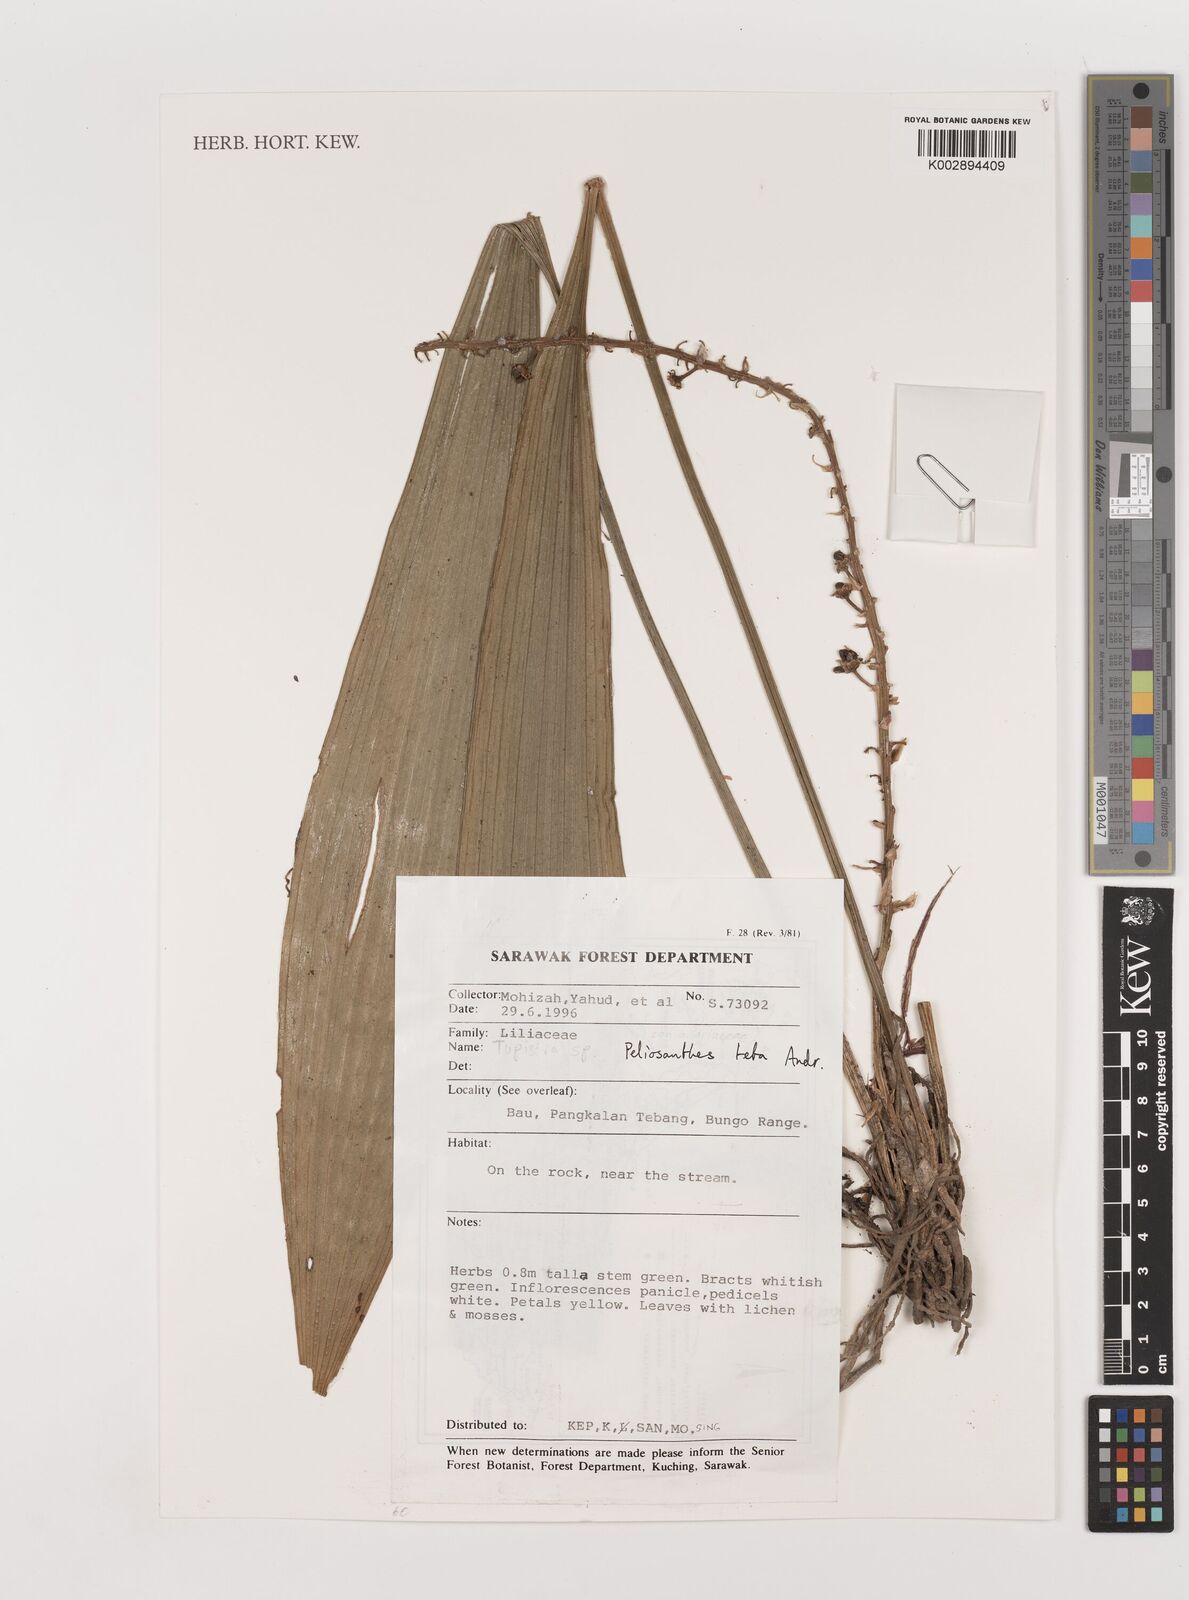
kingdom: Plantae
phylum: Tracheophyta
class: Liliopsida
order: Asparagales
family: Asparagaceae
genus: Peliosanthes
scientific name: Peliosanthes teta
